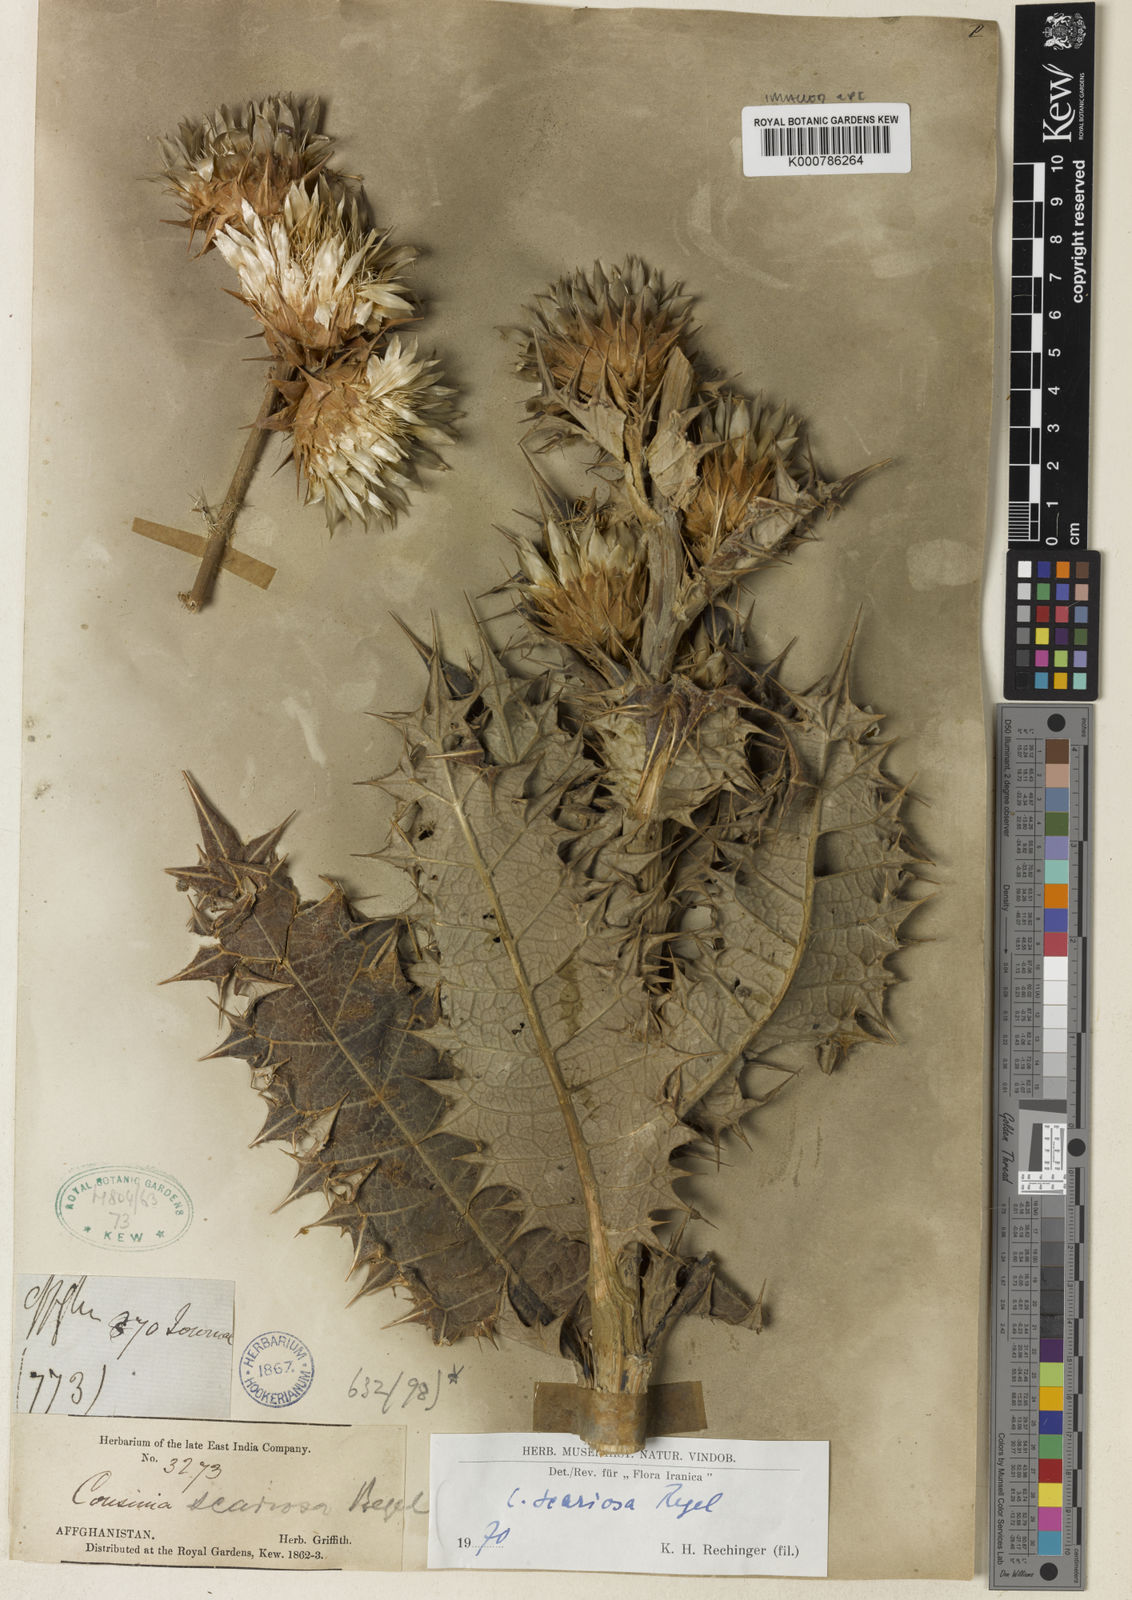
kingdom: Plantae
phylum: Tracheophyta
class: Magnoliopsida
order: Asterales
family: Asteraceae
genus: Cousinia
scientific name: Cousinia scariosa
